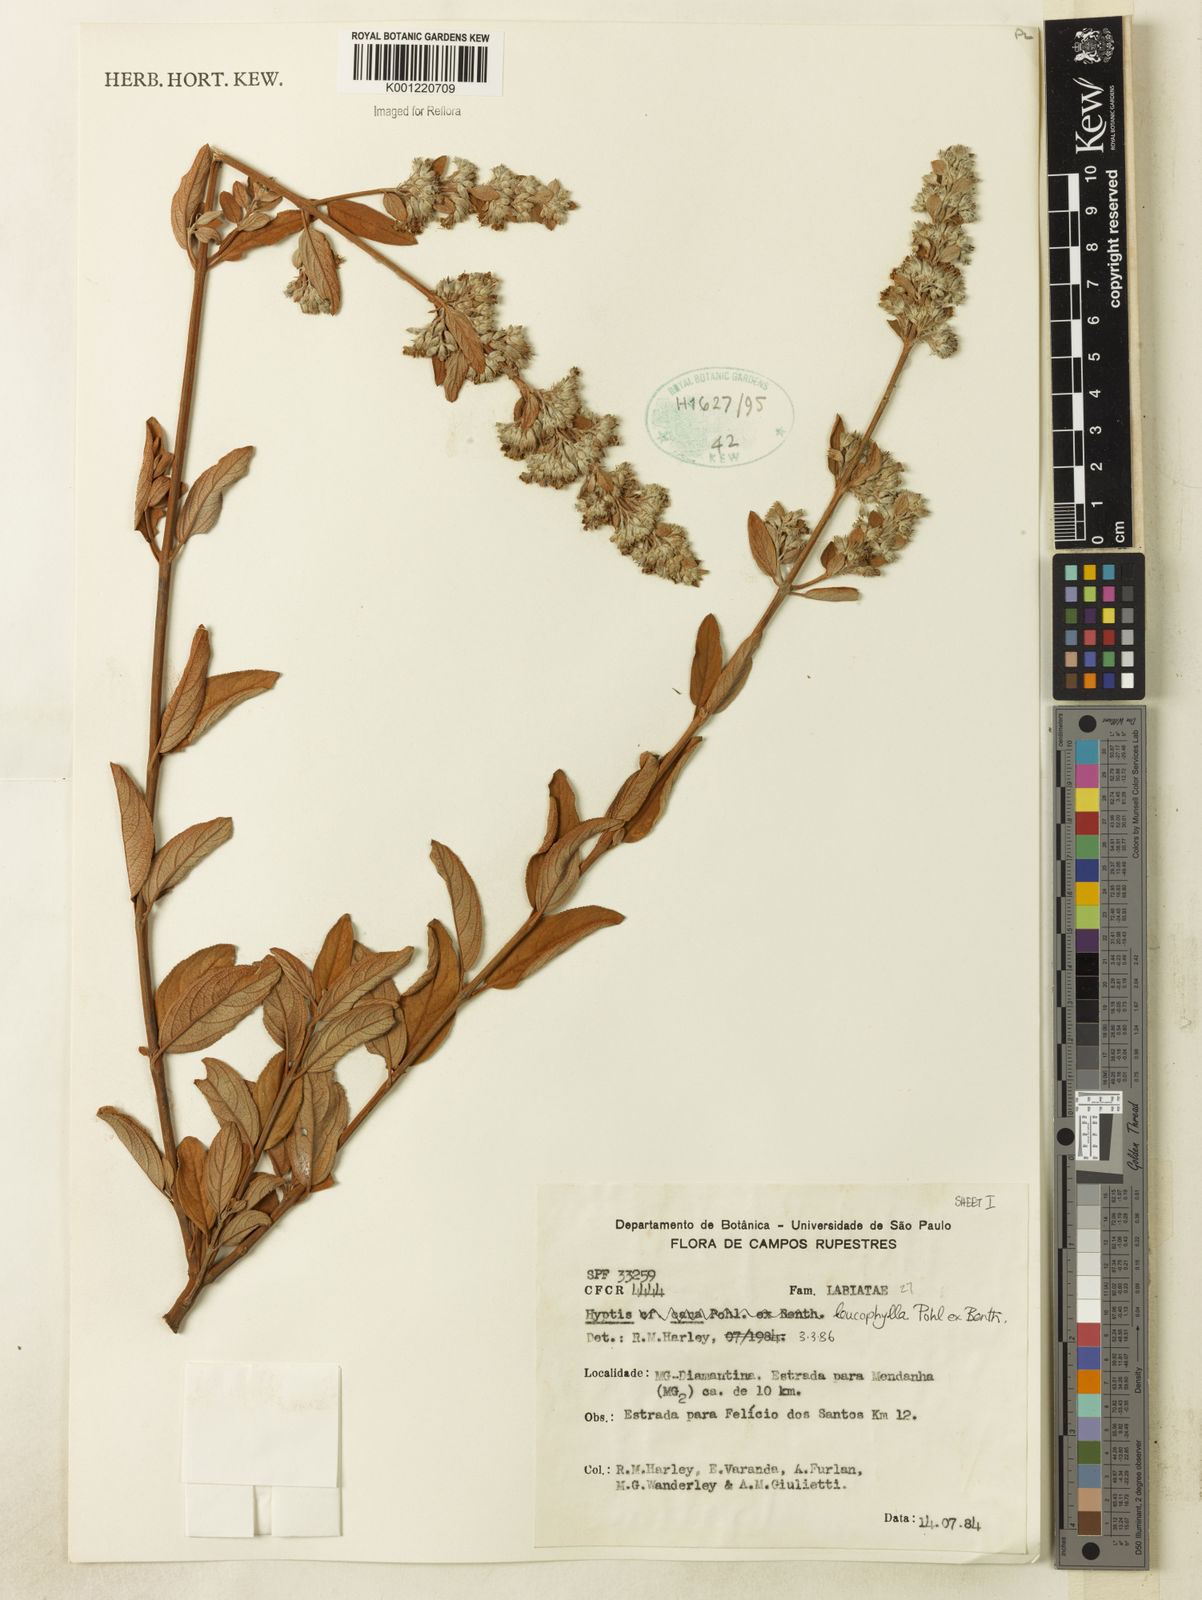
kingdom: Plantae
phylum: Tracheophyta
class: Magnoliopsida
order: Lamiales
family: Lamiaceae
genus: Hyptidendron
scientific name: Hyptidendron leucophyllum
